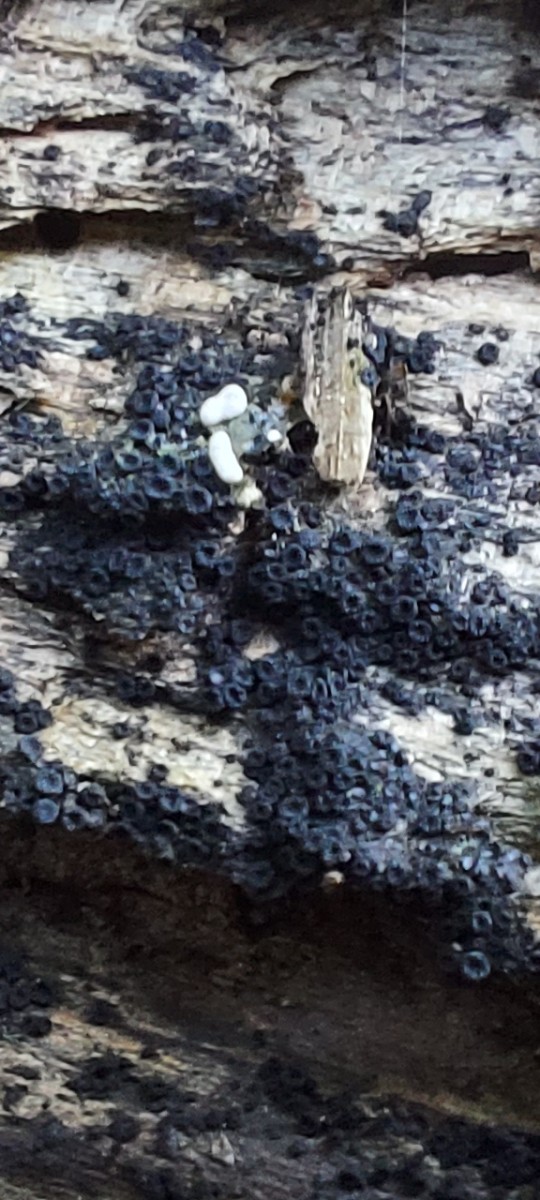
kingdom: Fungi
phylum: Ascomycota
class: Sordariomycetes
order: Coronophorales
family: Nitschkiaceae
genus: Nitschkia
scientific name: Nitschkia
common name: skålkerne
